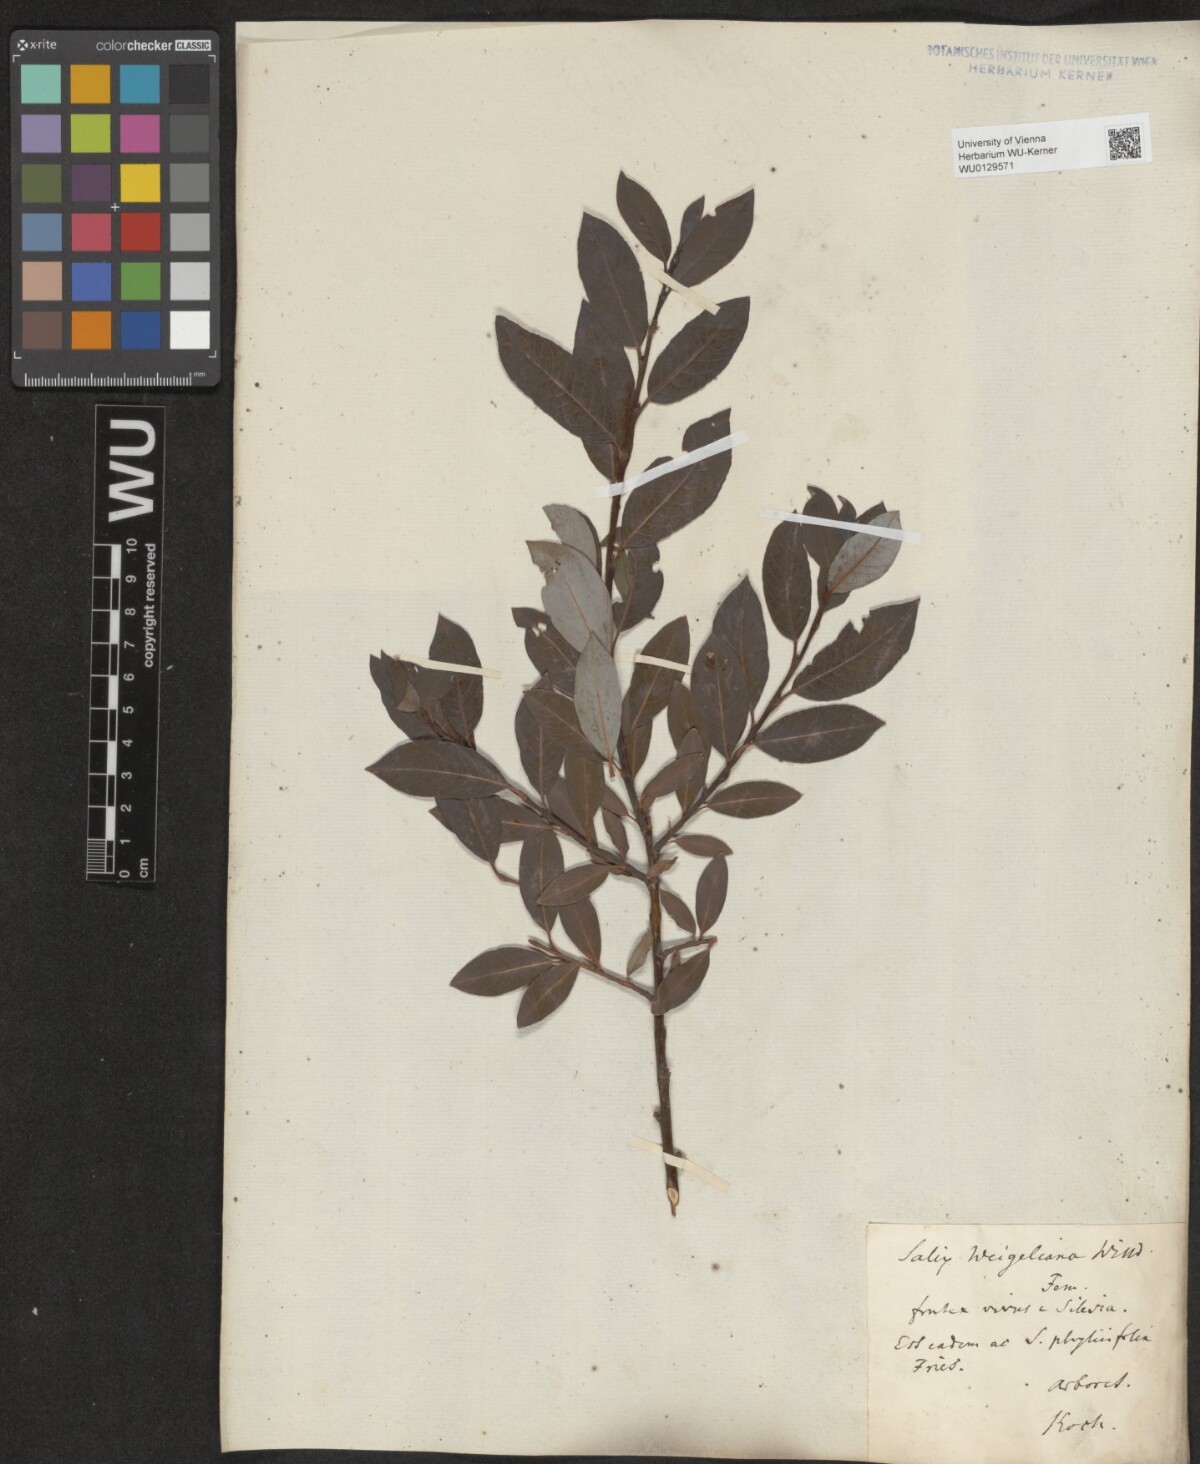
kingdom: Plantae
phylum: Tracheophyta
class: Magnoliopsida
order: Malpighiales
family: Salicaceae
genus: Salix
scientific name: Salix bicolor
